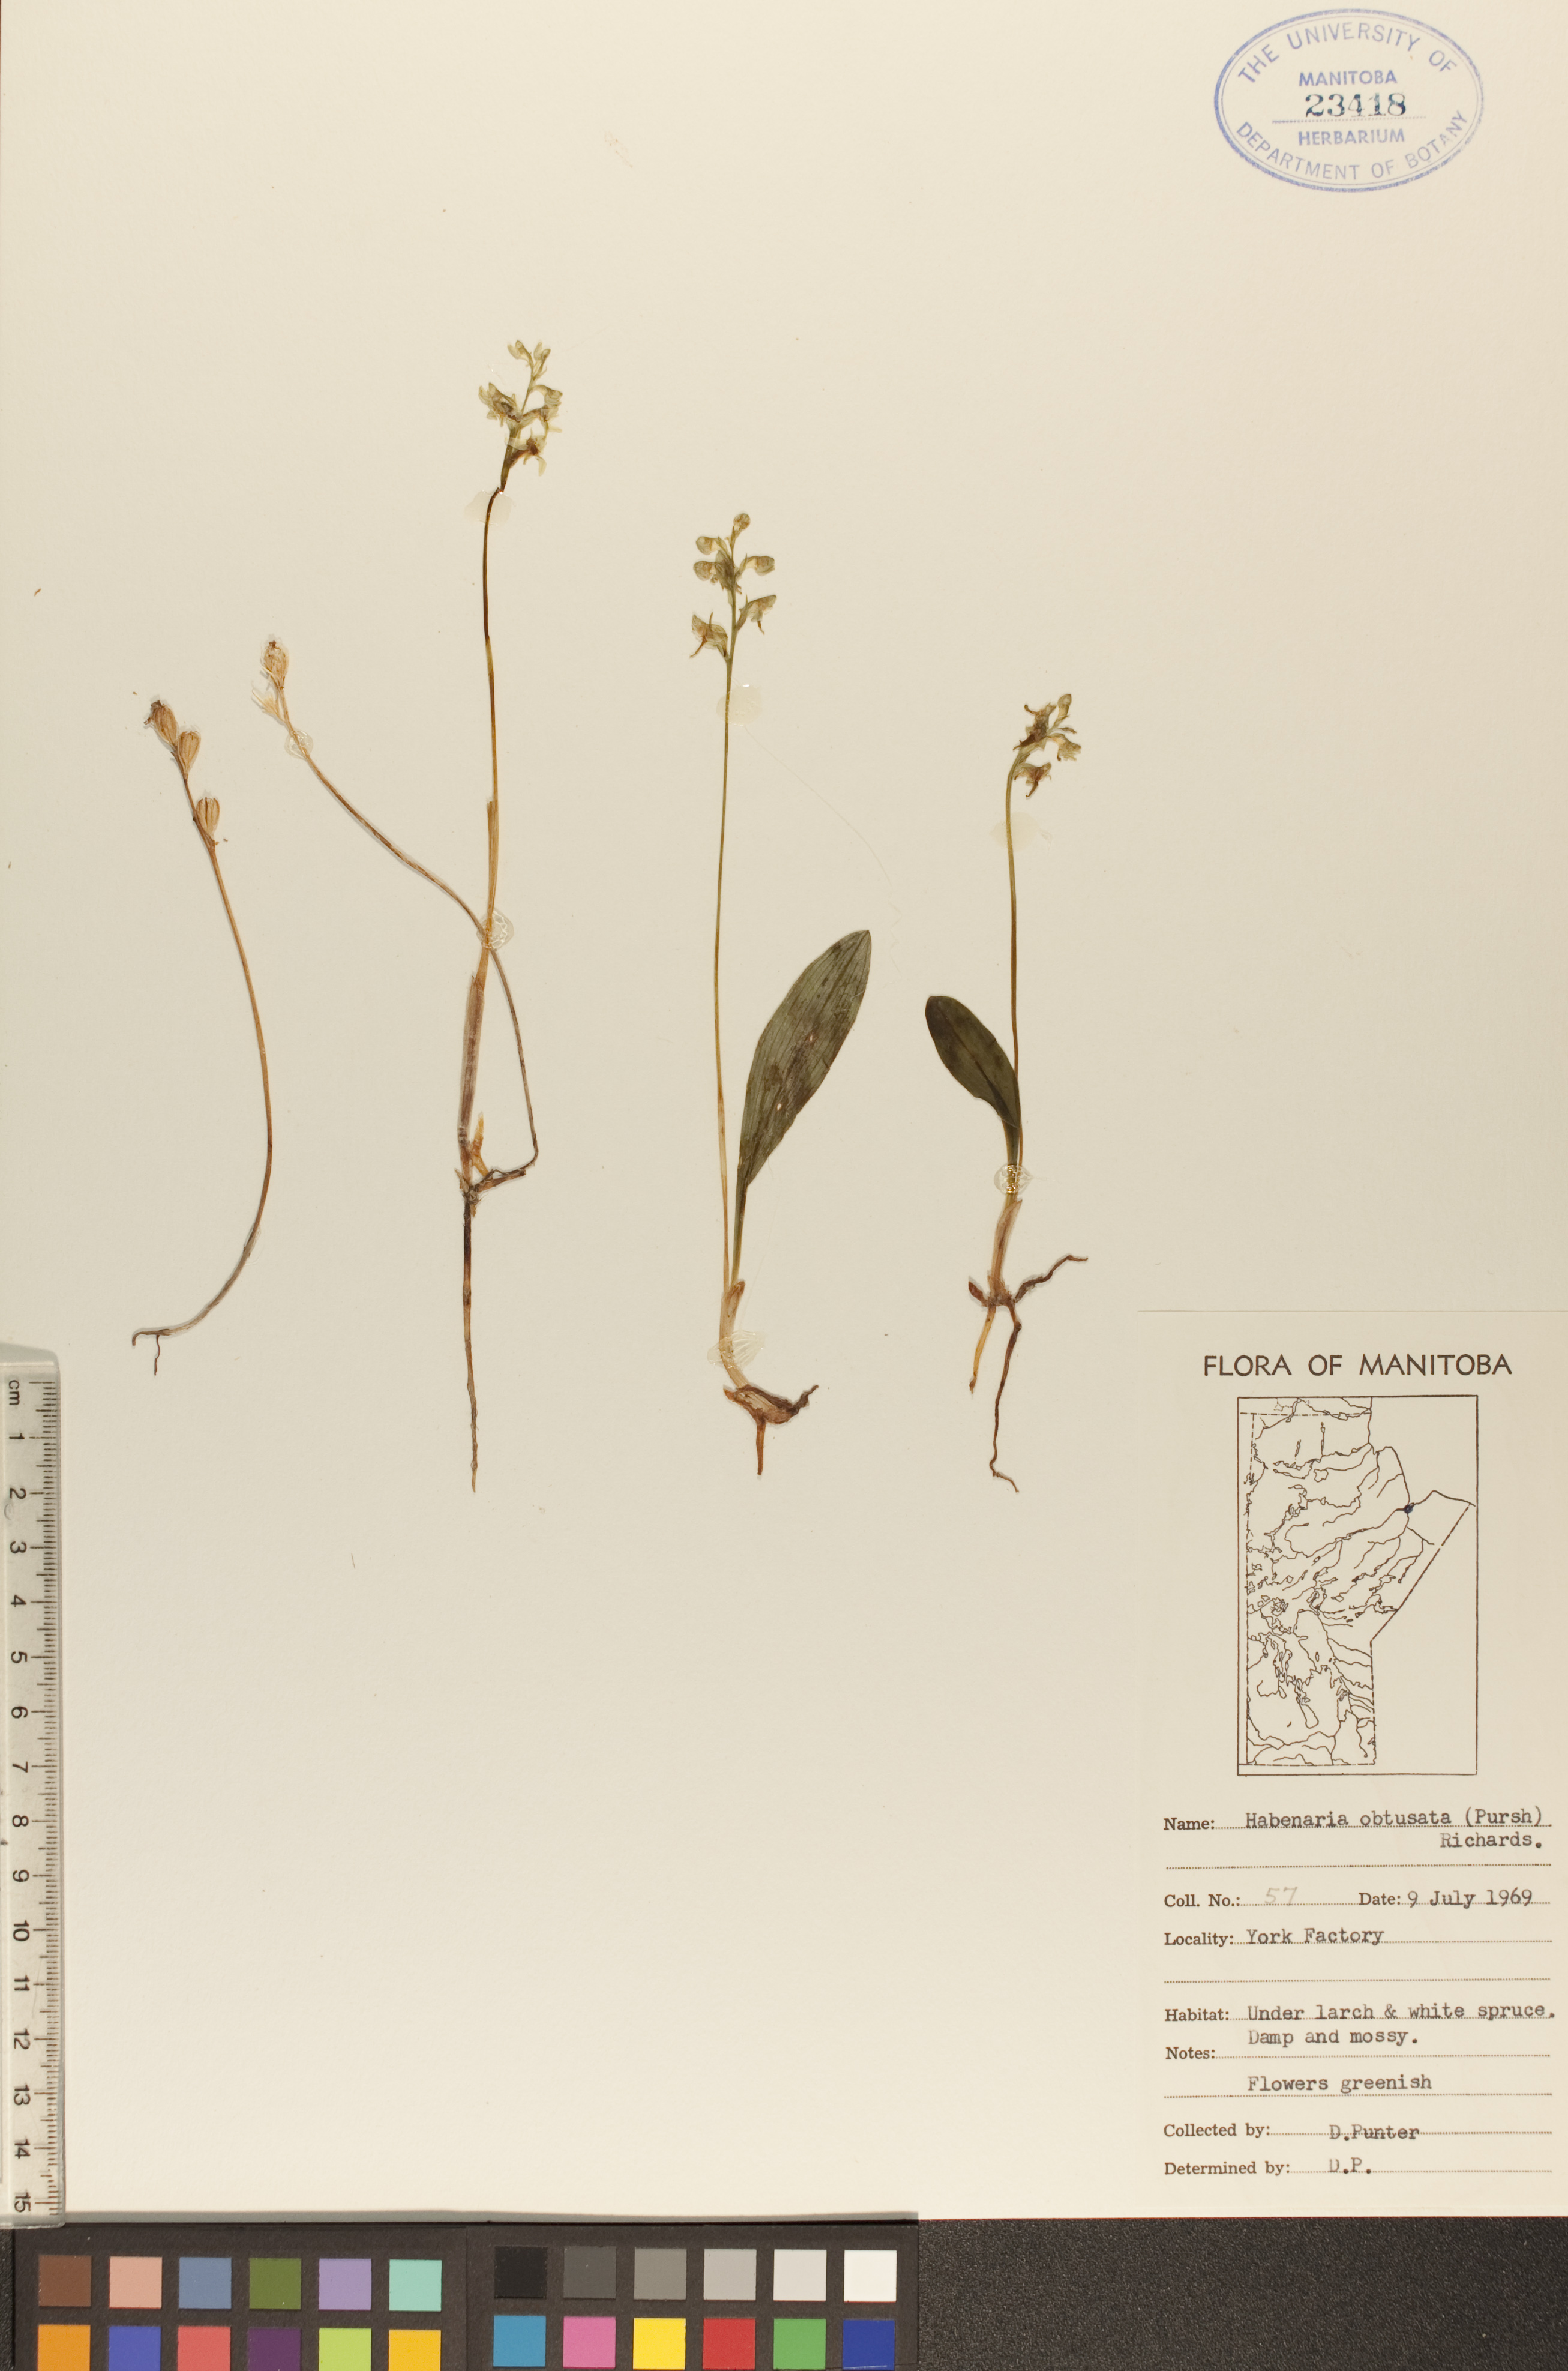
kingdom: Plantae
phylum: Tracheophyta
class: Liliopsida
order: Asparagales
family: Orchidaceae
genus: Platanthera
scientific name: Platanthera obtusata
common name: Blunt bog orchid
